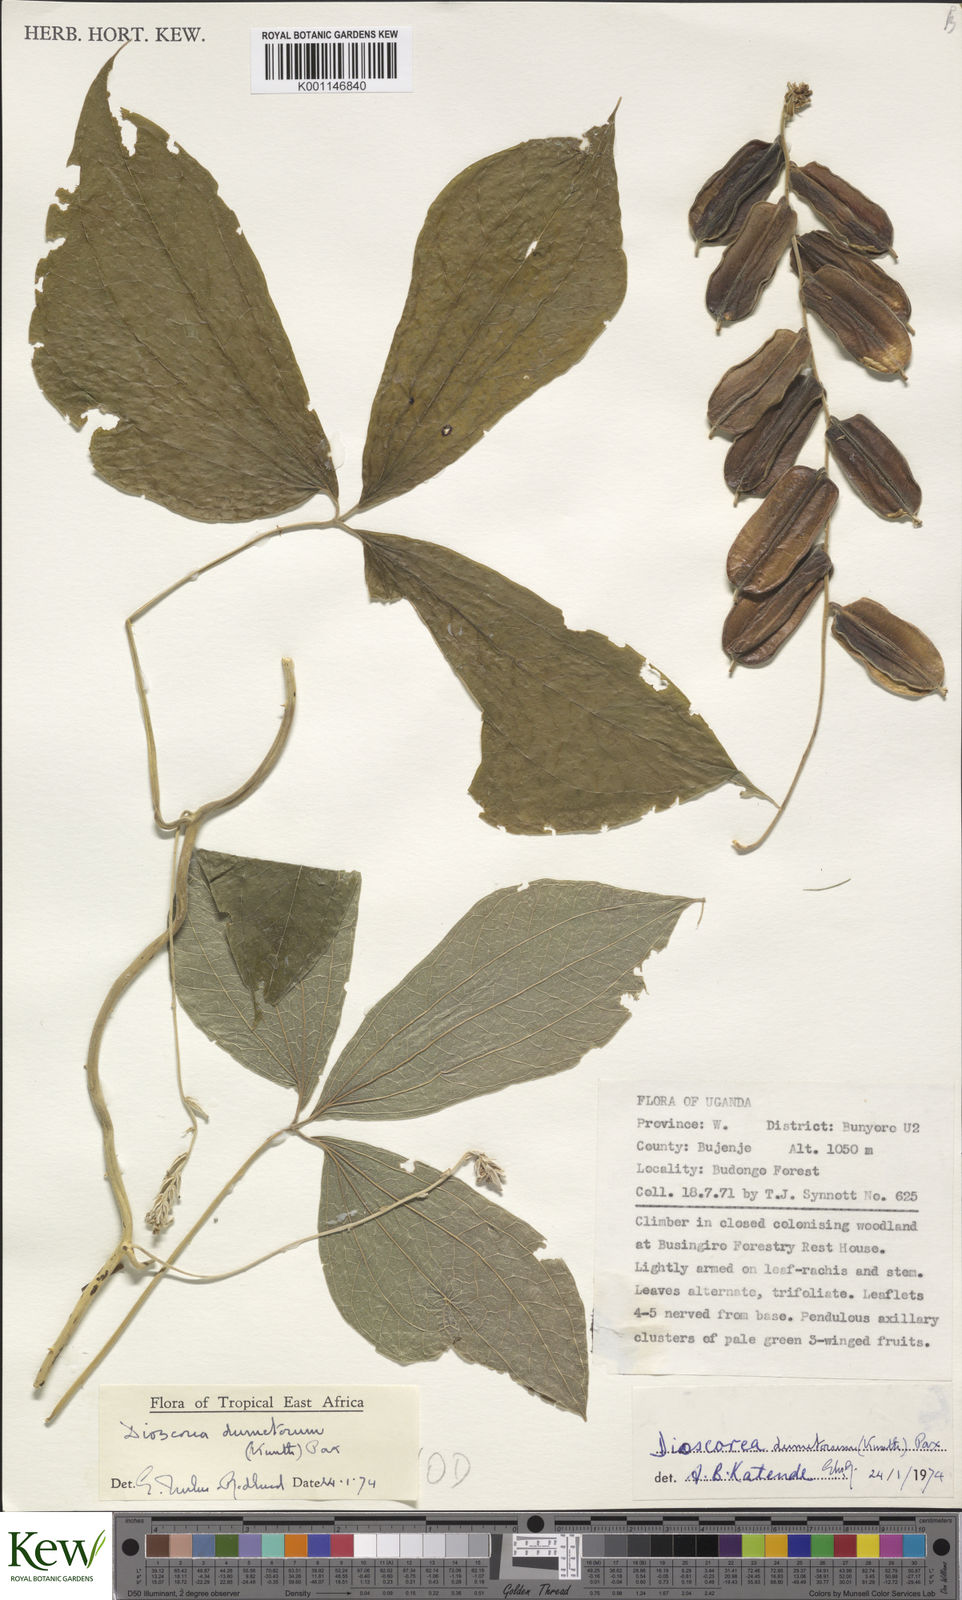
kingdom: Plantae
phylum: Tracheophyta
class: Liliopsida
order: Dioscoreales
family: Dioscoreaceae
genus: Dioscorea
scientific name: Dioscorea dumetorum
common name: African bitter yam
